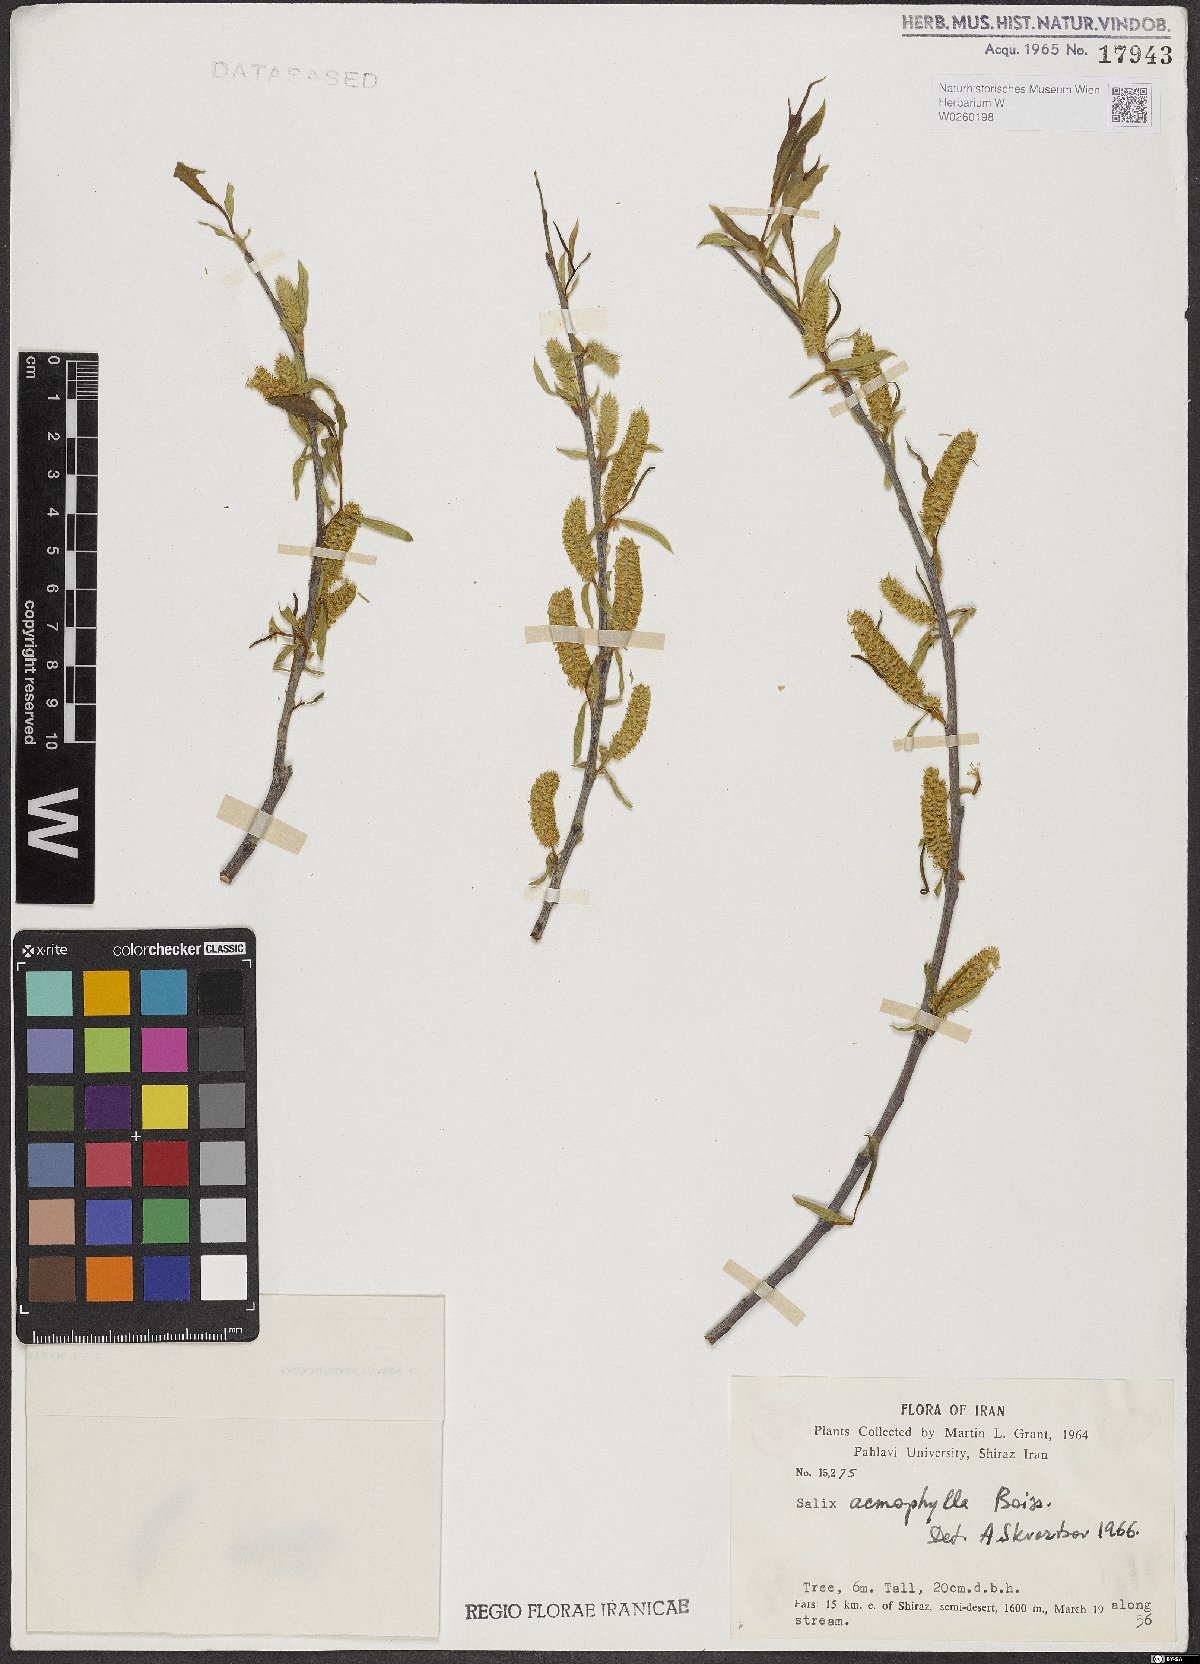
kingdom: Plantae
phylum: Tracheophyta
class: Magnoliopsida
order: Malpighiales
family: Salicaceae
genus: Salix
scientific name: Salix acmophylla
